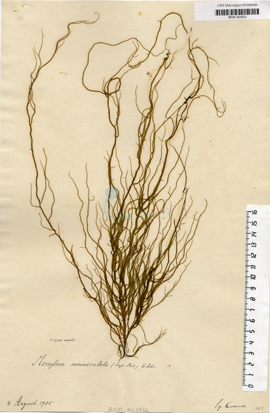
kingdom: Chromista
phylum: Ochrophyta
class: Phaeophyceae
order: Ectocarpales
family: Chordariaceae
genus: Mesogloia
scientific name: Mesogloia vermiculata
